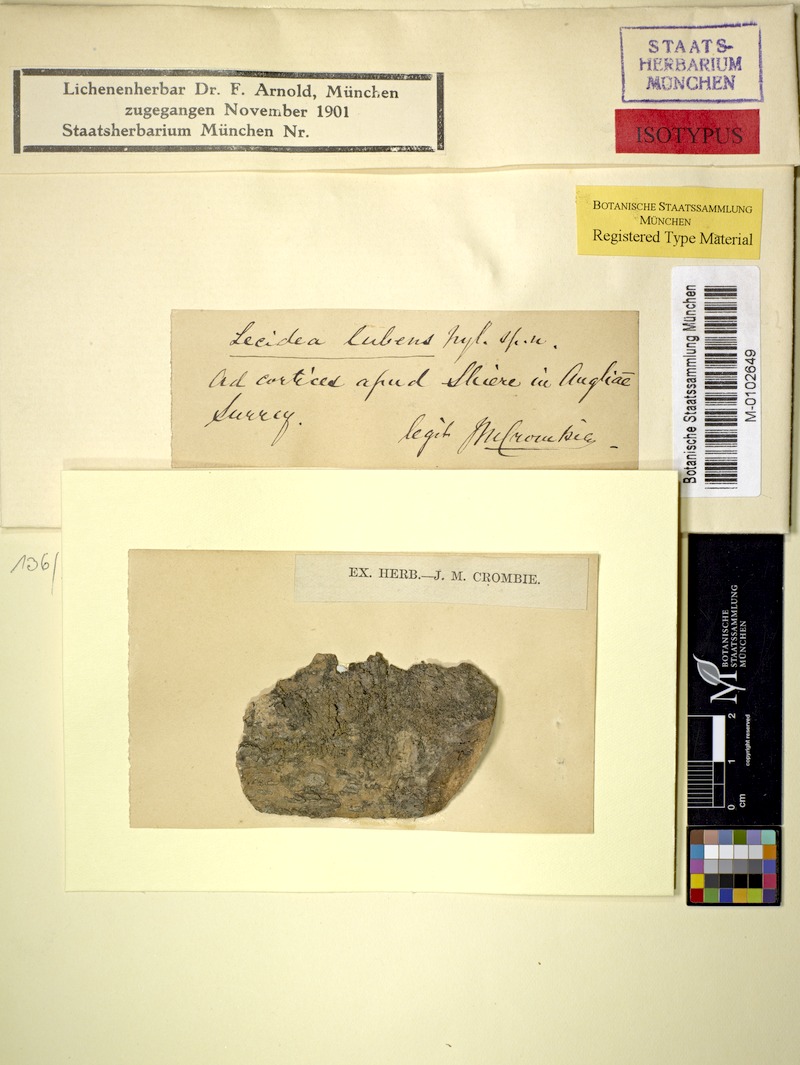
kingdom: Fungi
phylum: Ascomycota
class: Lecanoromycetes
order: Lecanorales
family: Ramalinaceae
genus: Bilimbia
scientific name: Bilimbia sabuletorum
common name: Six-celled moss dot lichen
